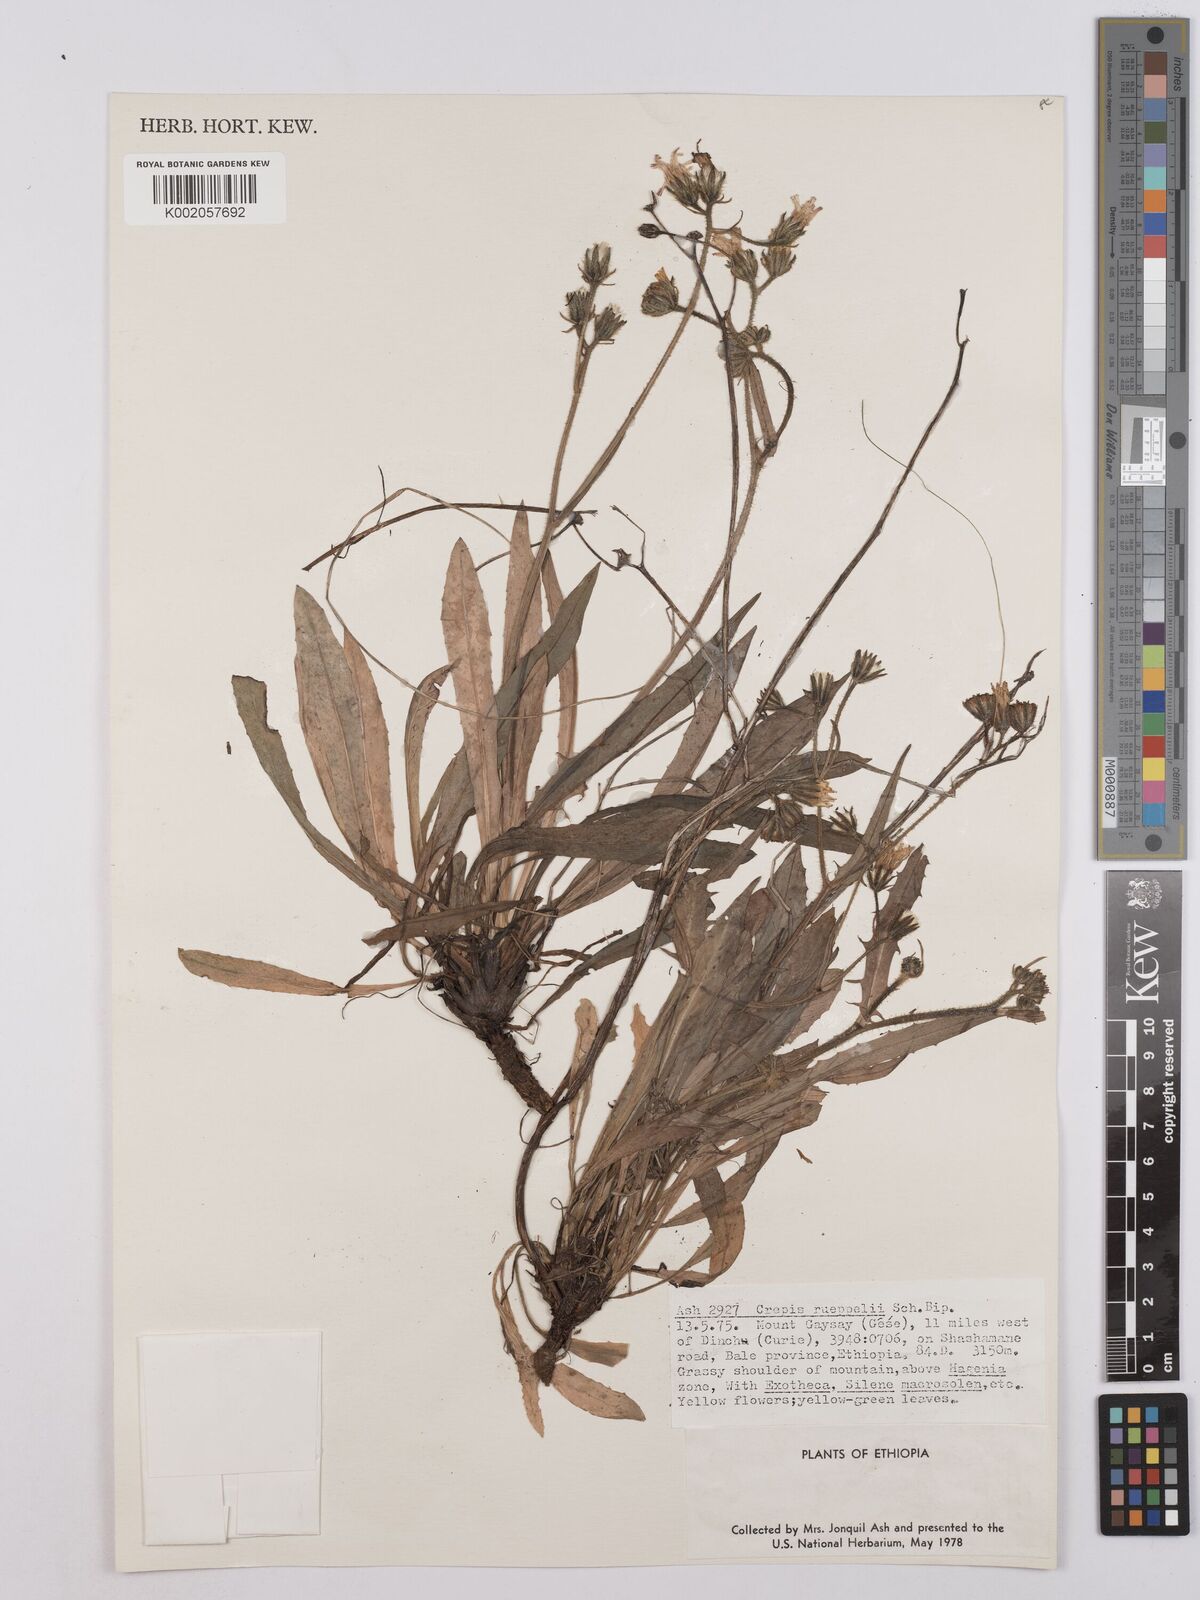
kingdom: Plantae
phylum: Tracheophyta
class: Magnoliopsida
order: Asterales
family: Asteraceae
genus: Crepis
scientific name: Crepis rueppellii
